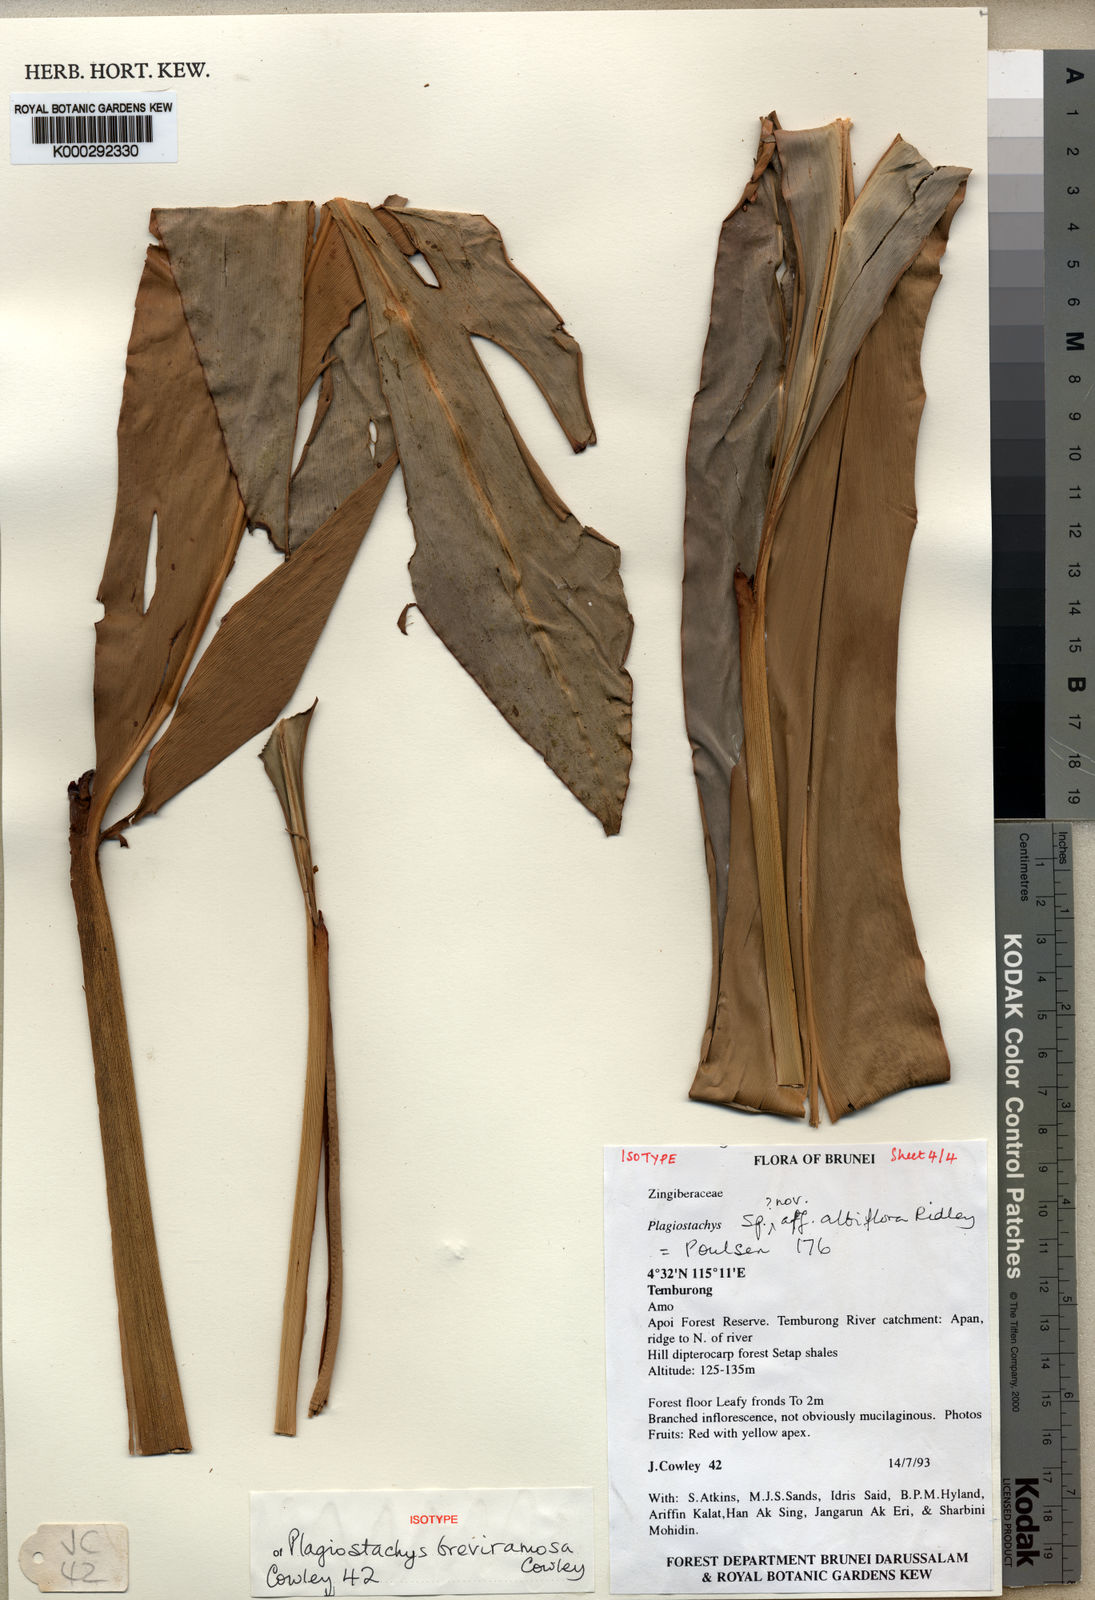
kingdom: Plantae
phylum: Tracheophyta
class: Liliopsida
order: Zingiberales
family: Zingiberaceae
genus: Plagiostachys
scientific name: Plagiostachys breviramosa
